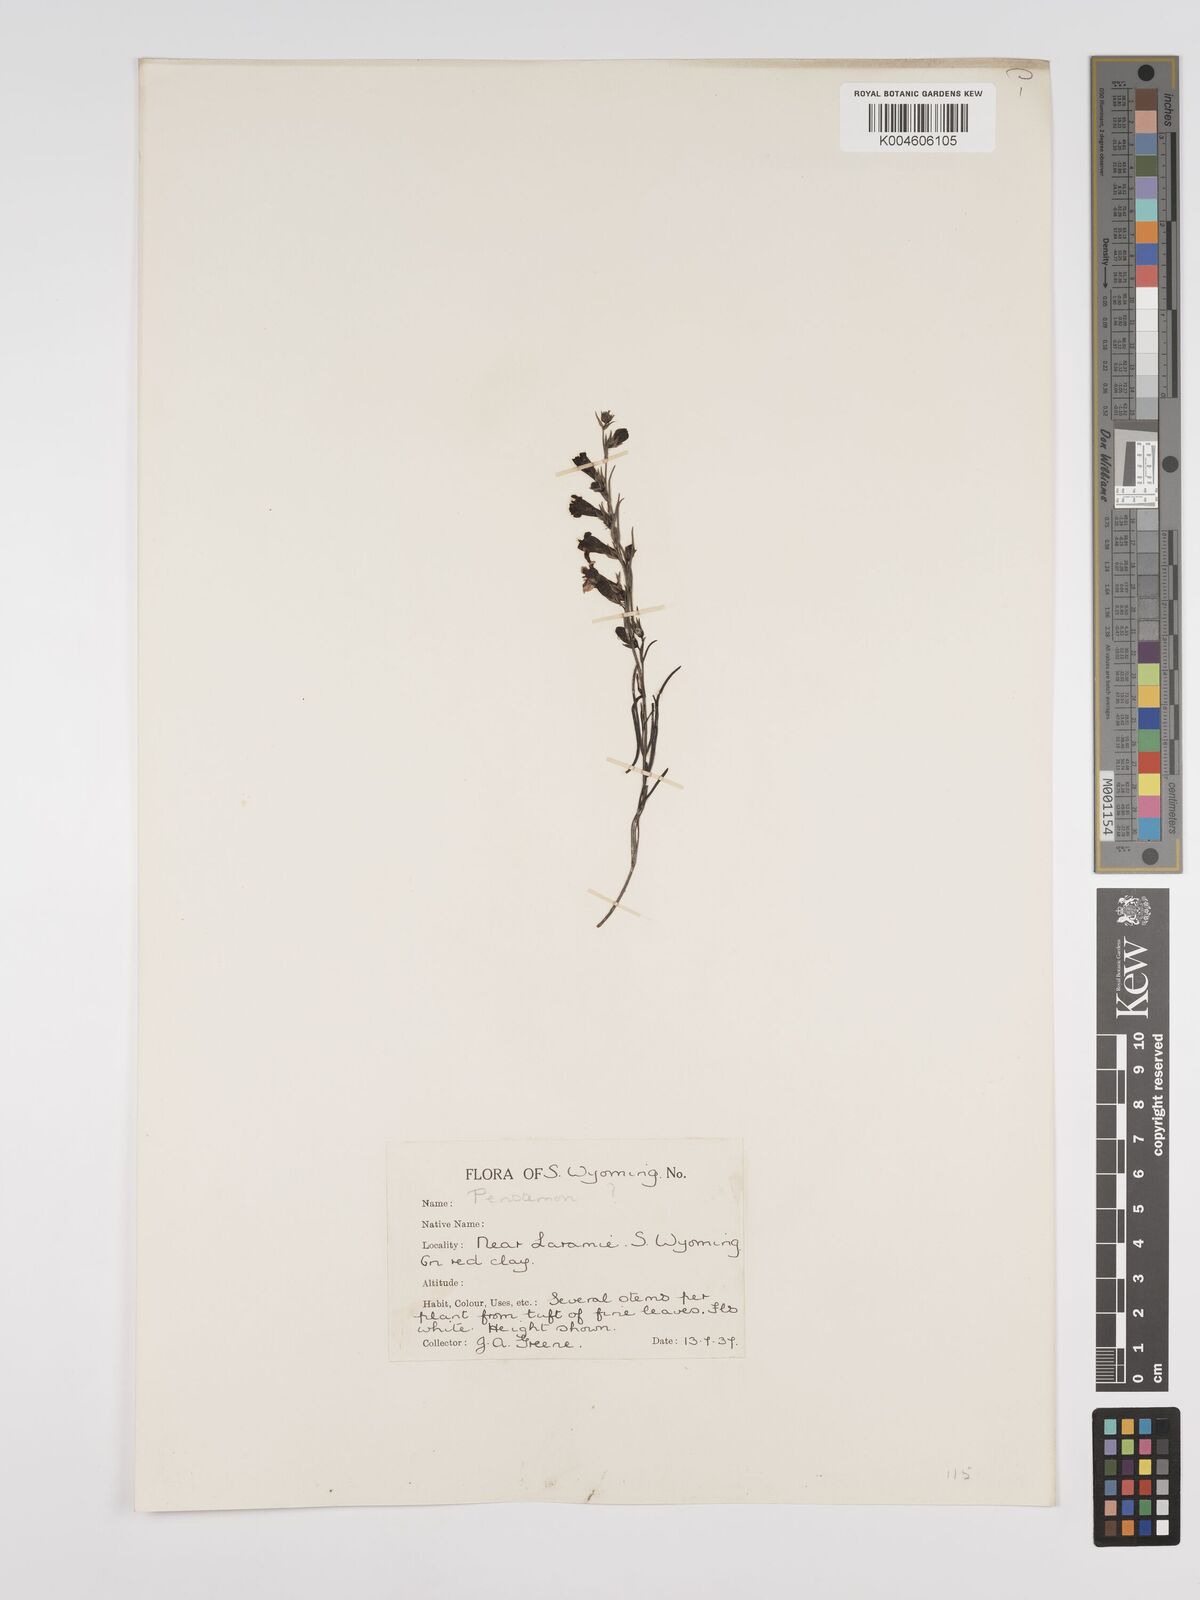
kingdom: Plantae
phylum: Tracheophyta
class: Magnoliopsida
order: Lamiales
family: Plantaginaceae
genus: Penstemon
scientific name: Penstemon
